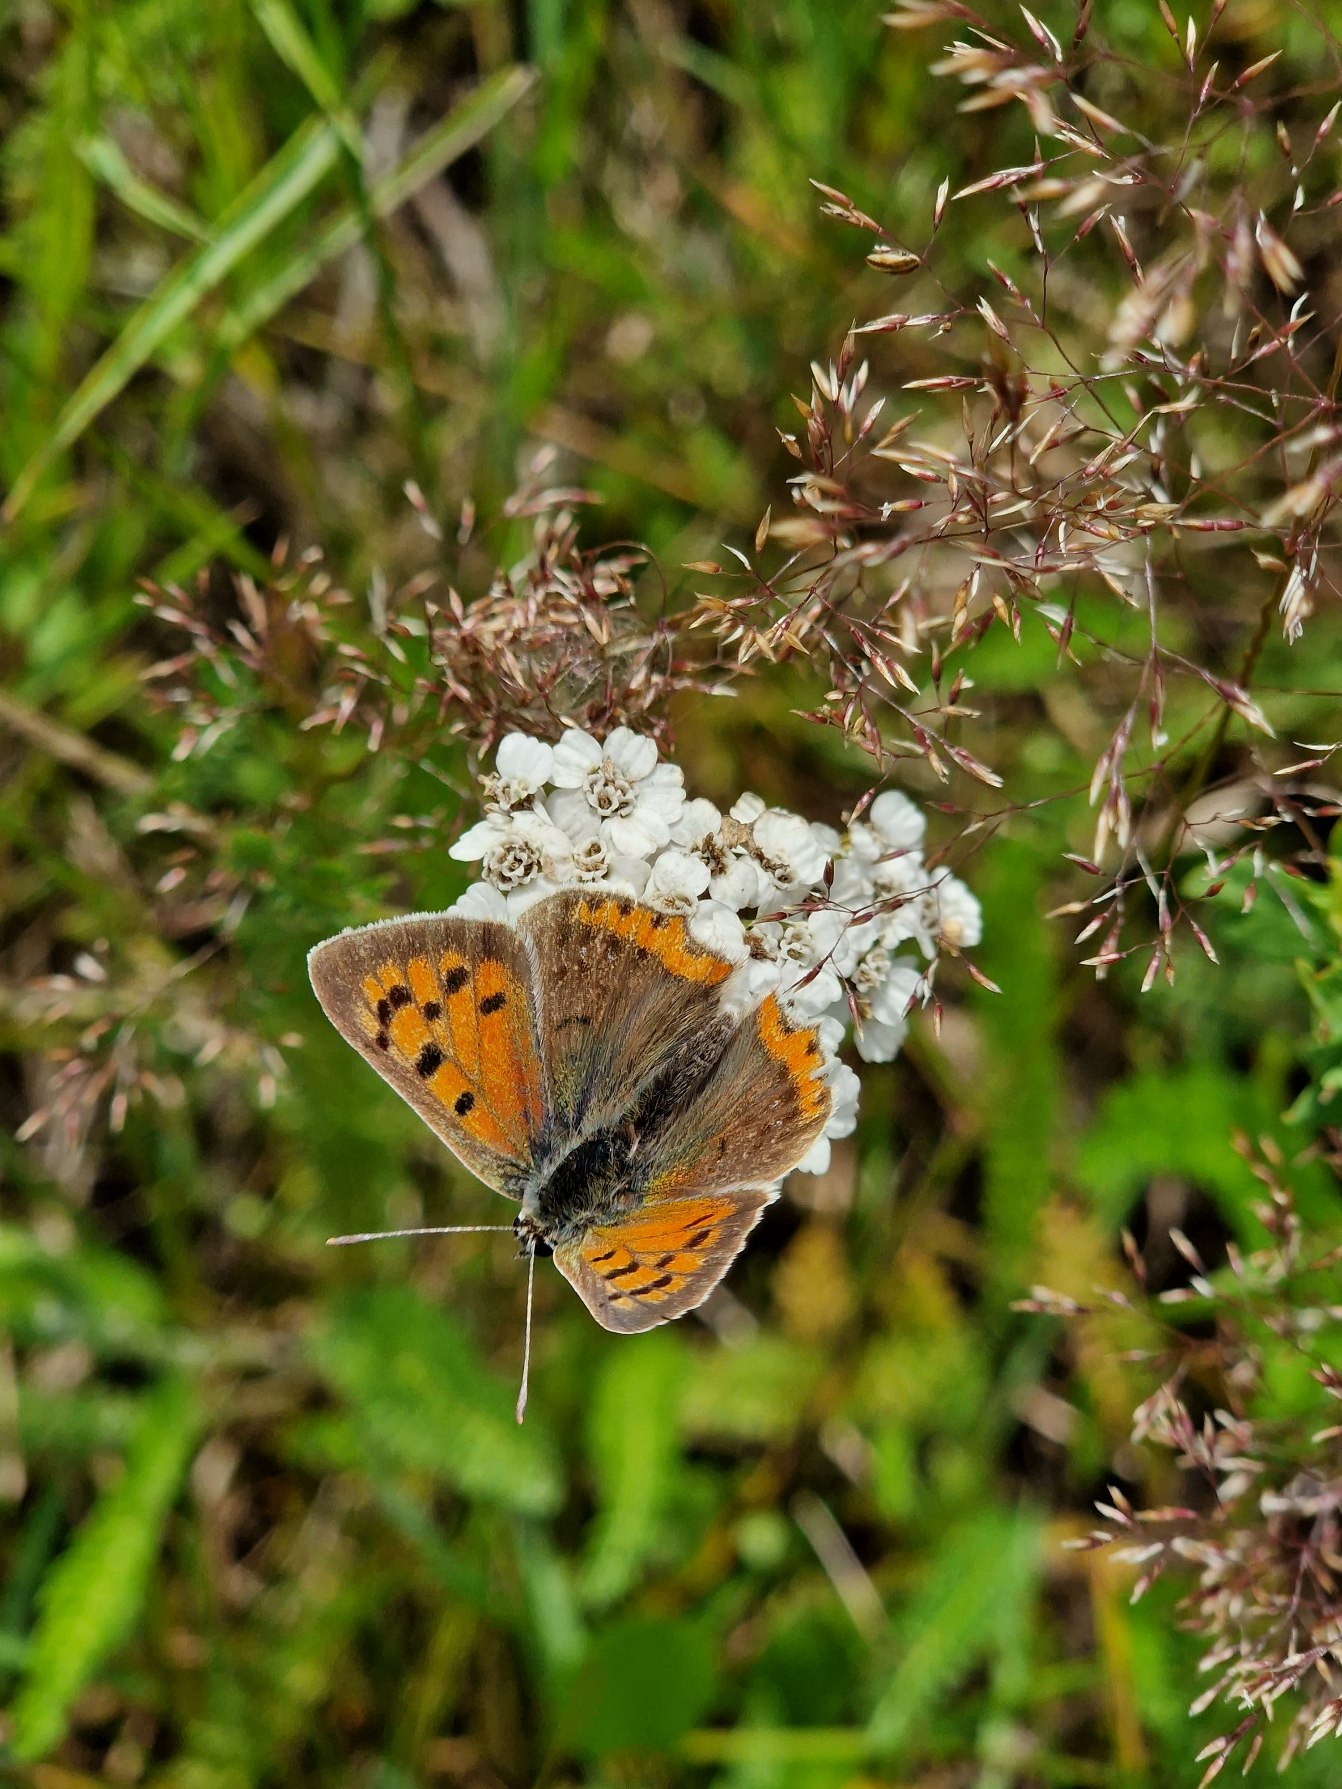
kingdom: Animalia
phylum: Arthropoda
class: Insecta
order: Lepidoptera
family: Lycaenidae
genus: Lycaena
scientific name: Lycaena phlaeas
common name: Lille ildfugl
